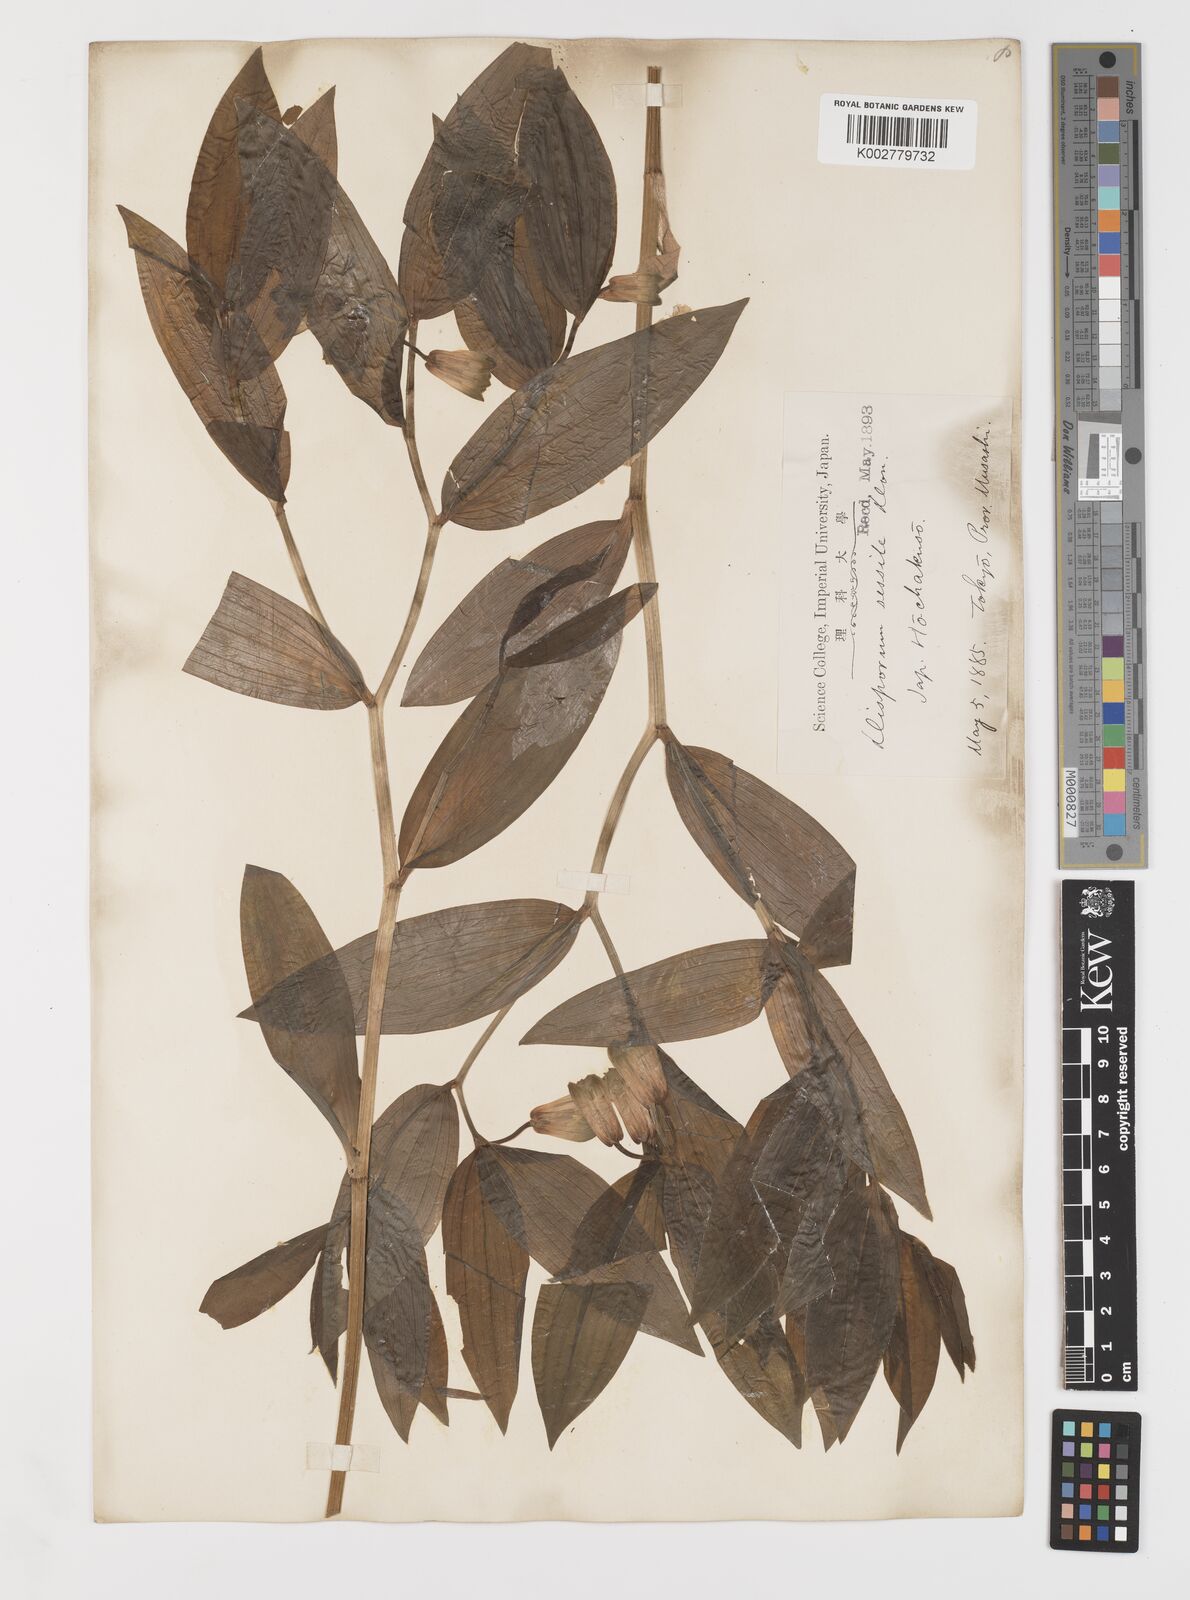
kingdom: Plantae
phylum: Tracheophyta
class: Liliopsida
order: Liliales
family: Colchicaceae
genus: Disporum
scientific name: Disporum sessile
